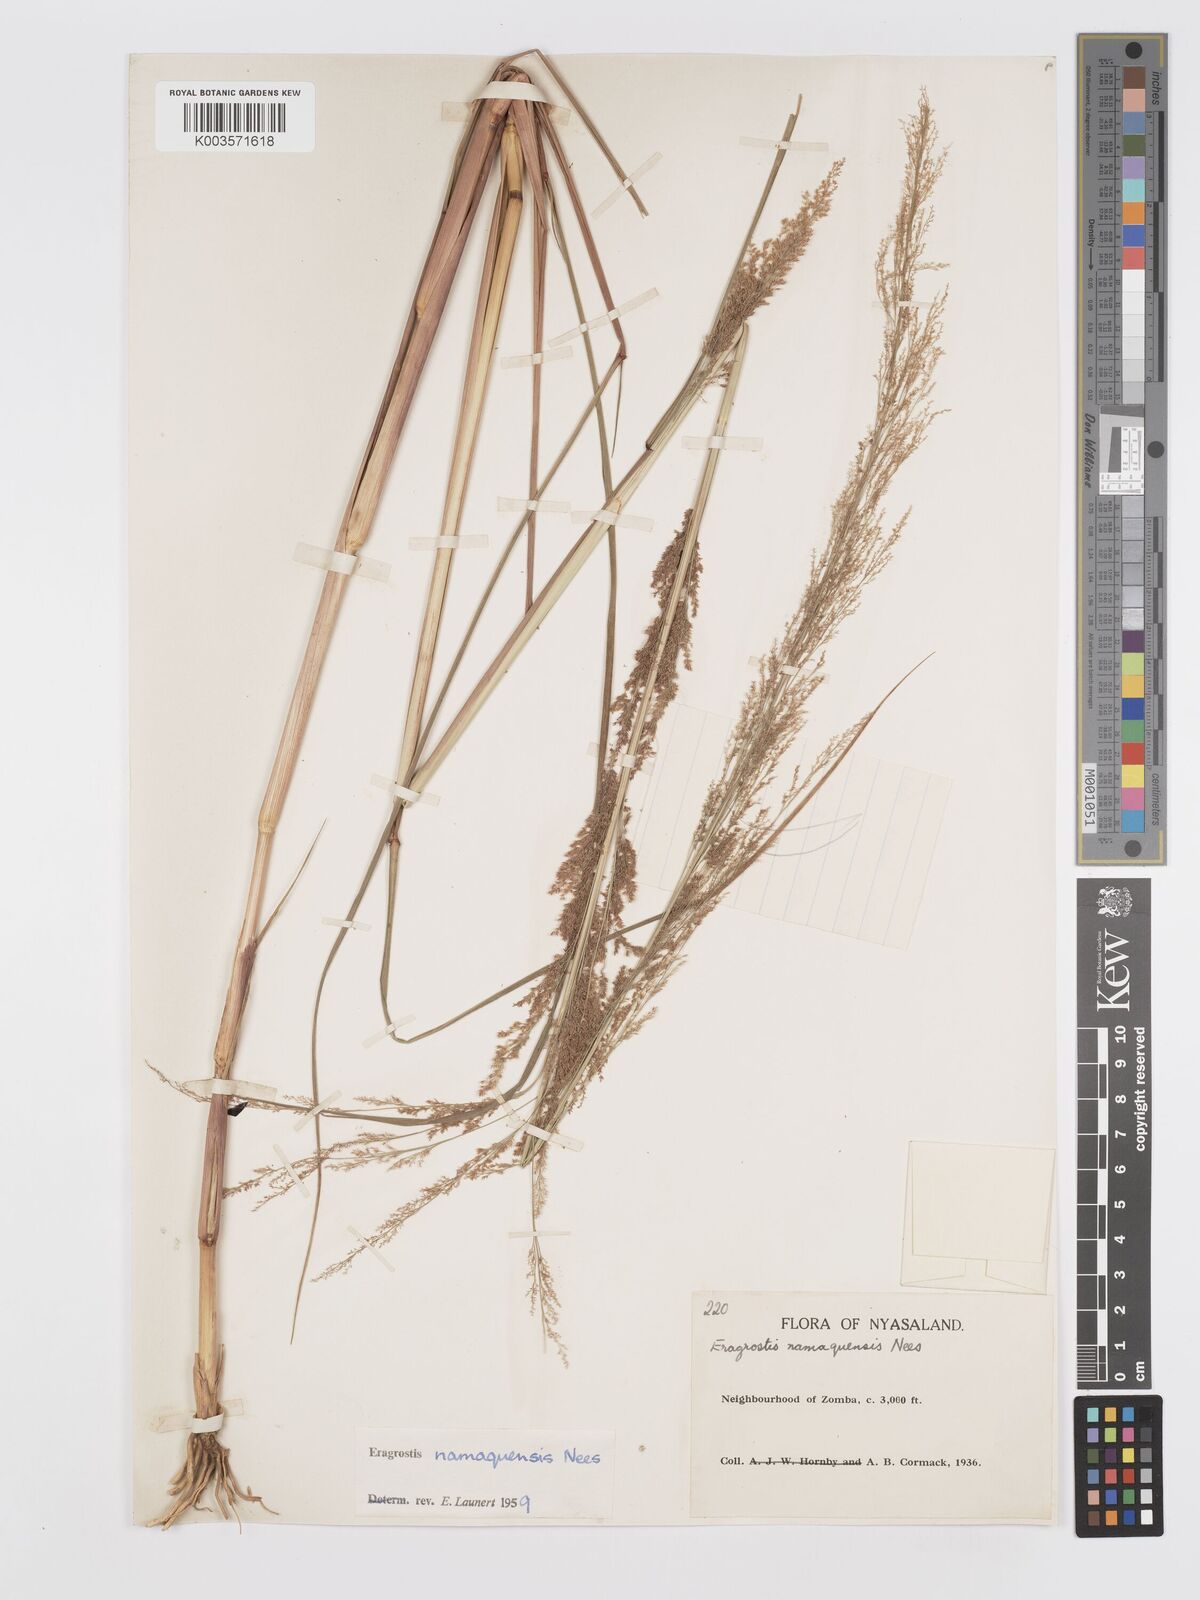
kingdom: Plantae
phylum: Tracheophyta
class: Liliopsida
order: Poales
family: Poaceae
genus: Eragrostis
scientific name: Eragrostis japonica
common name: Pond lovegrass
